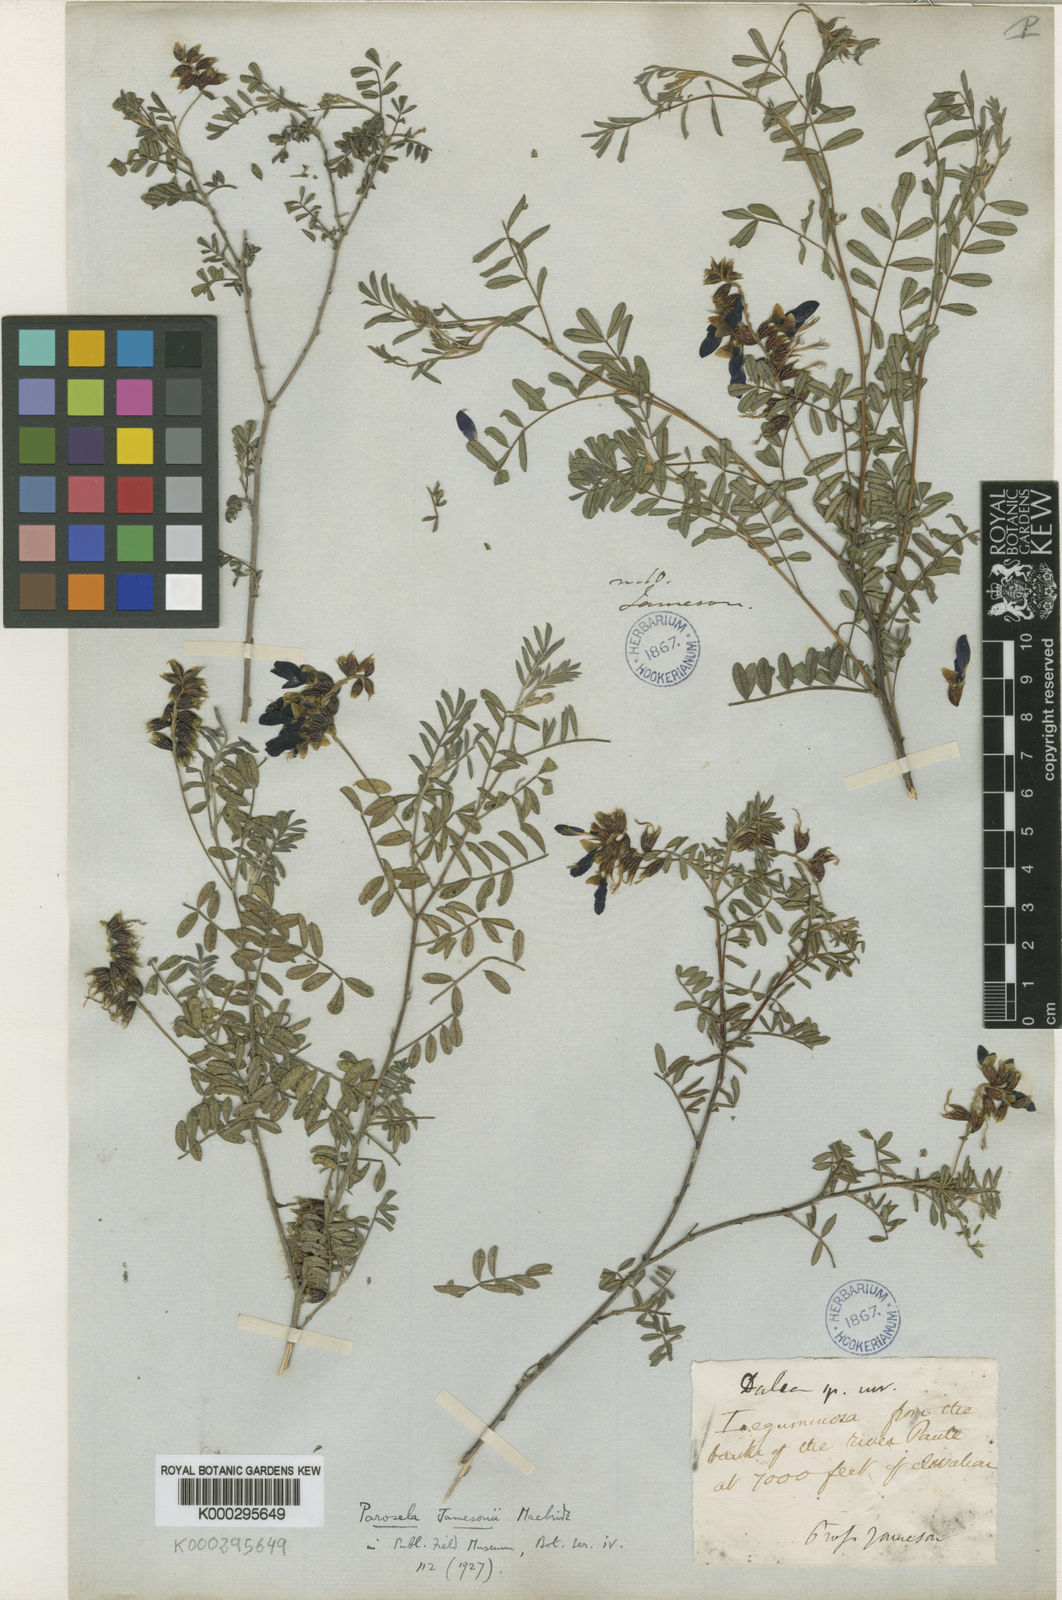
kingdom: Plantae
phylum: Tracheophyta
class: Magnoliopsida
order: Fabales
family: Fabaceae
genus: Dalea
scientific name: Dalea jamesonii
